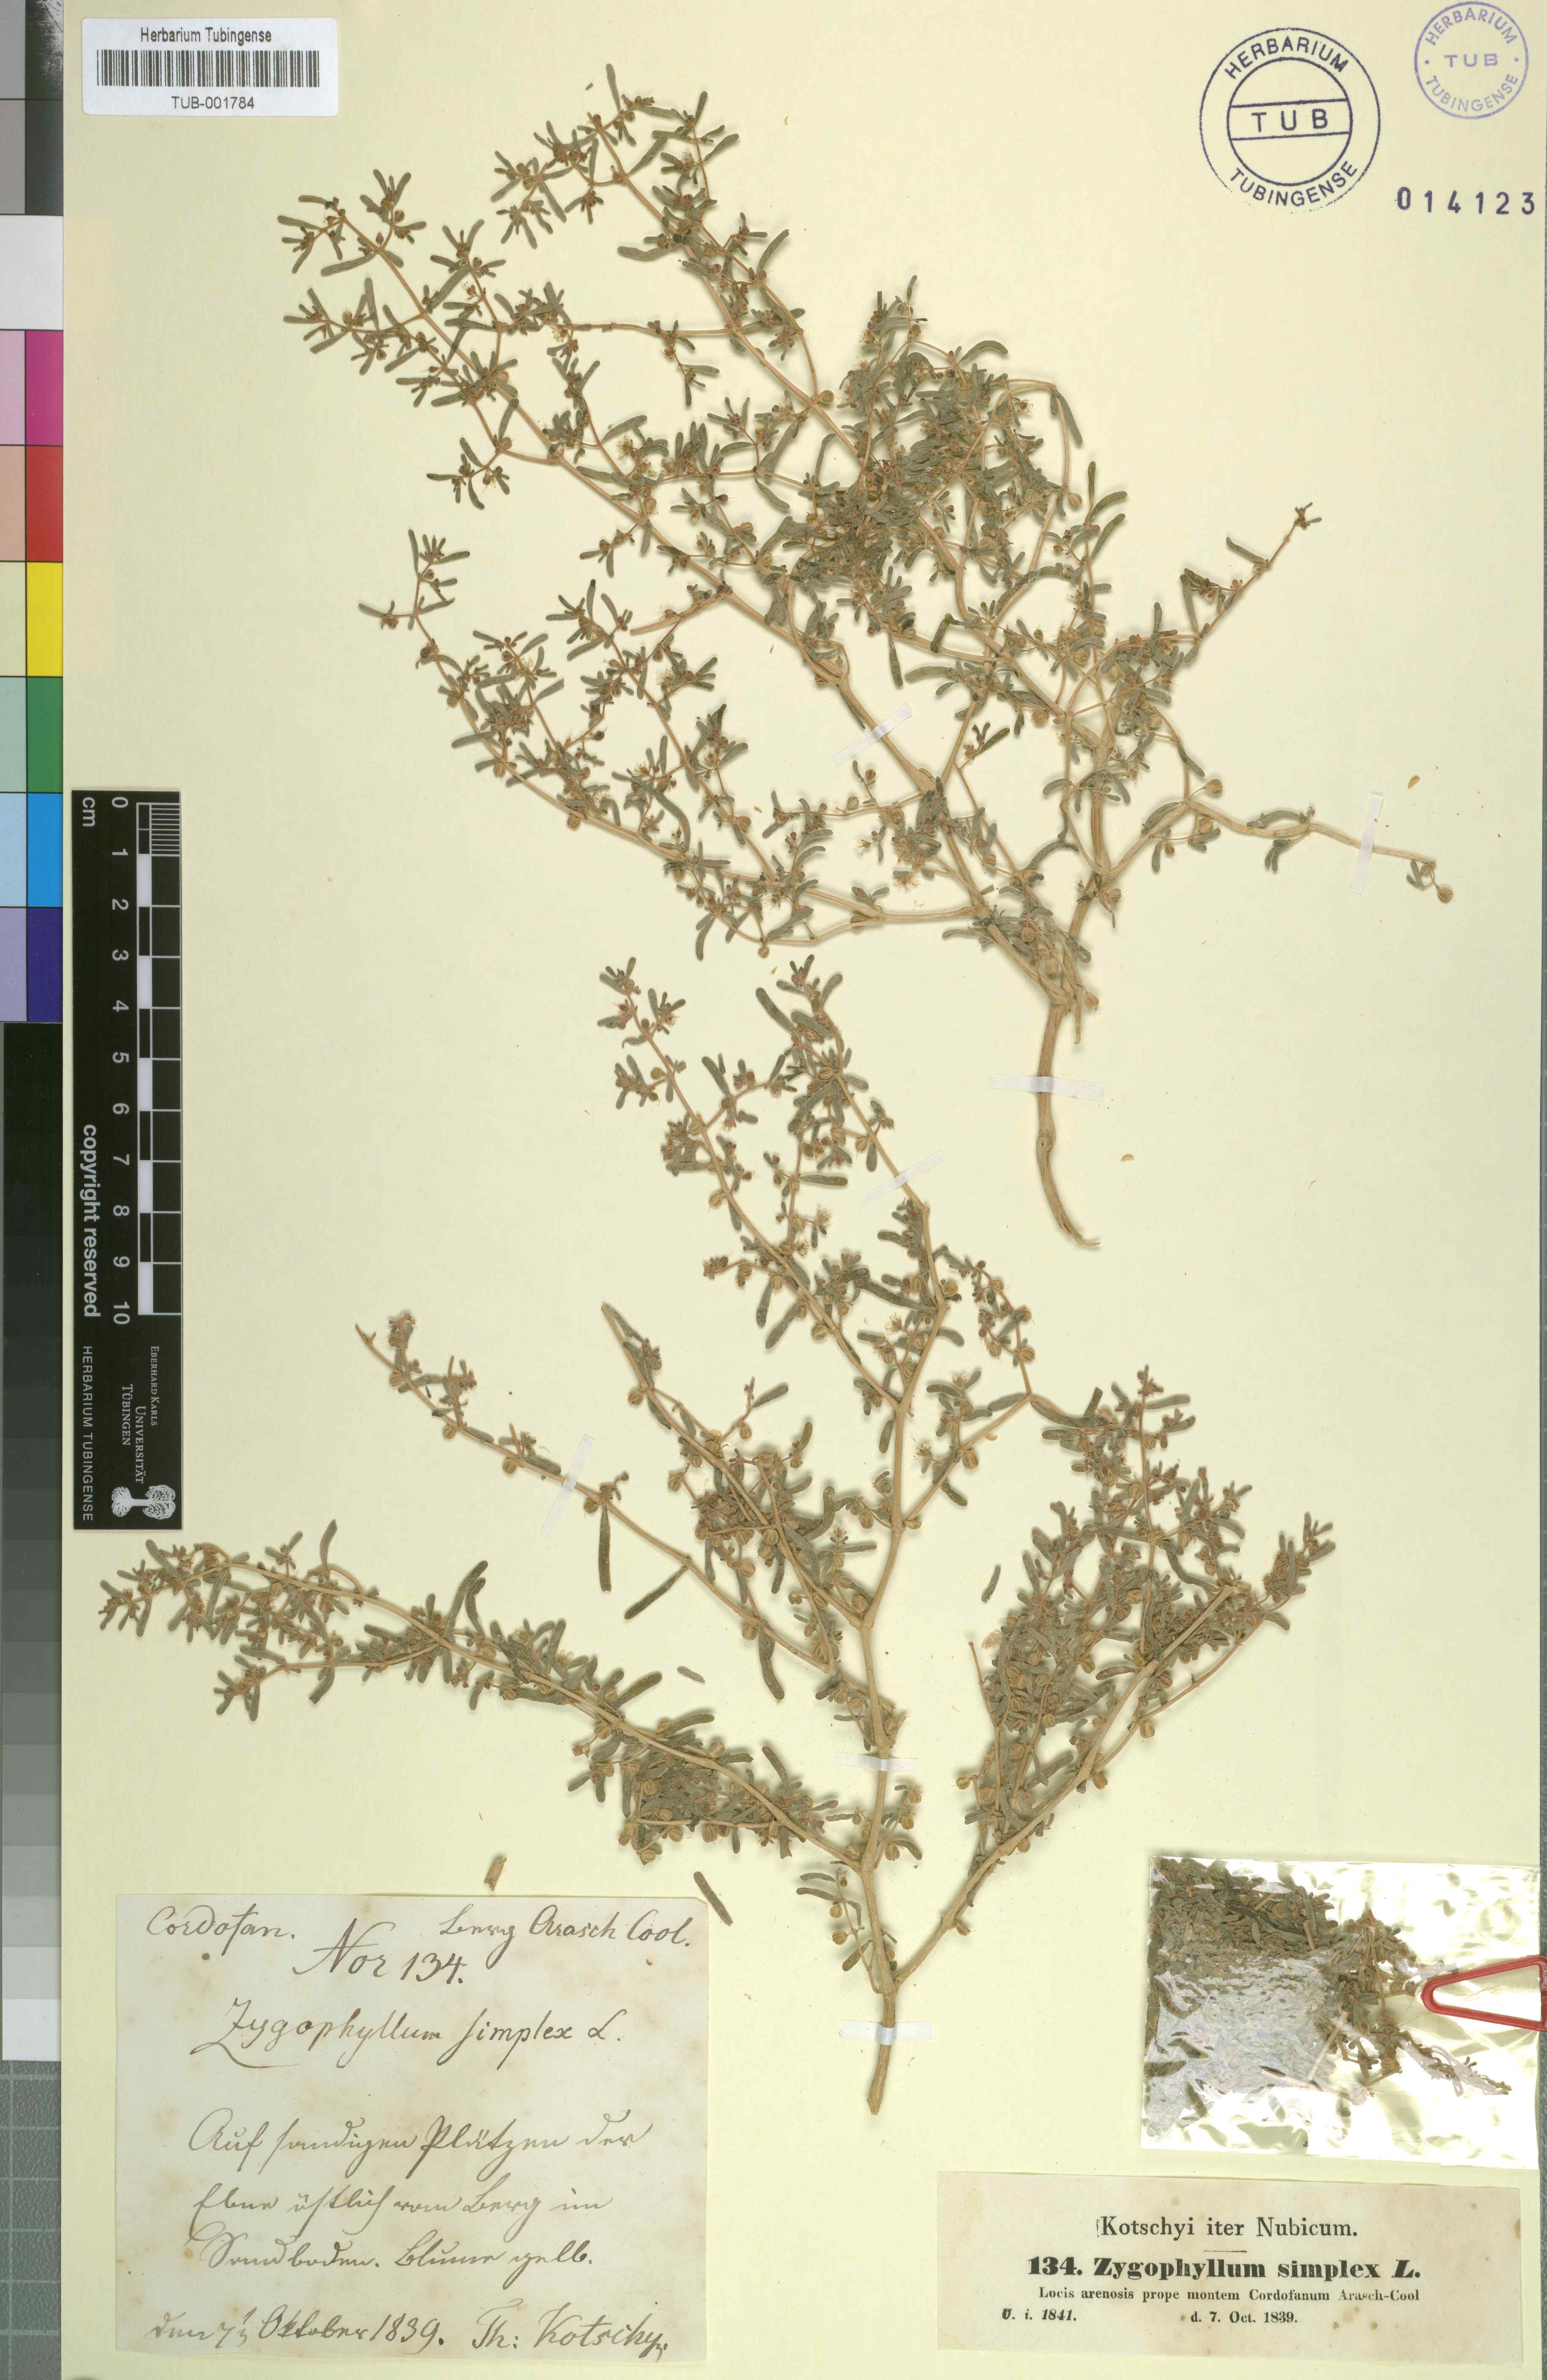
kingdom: Plantae
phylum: Tracheophyta
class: Magnoliopsida
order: Zygophyllales
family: Zygophyllaceae
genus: Tetraena
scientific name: Tetraena simplex
